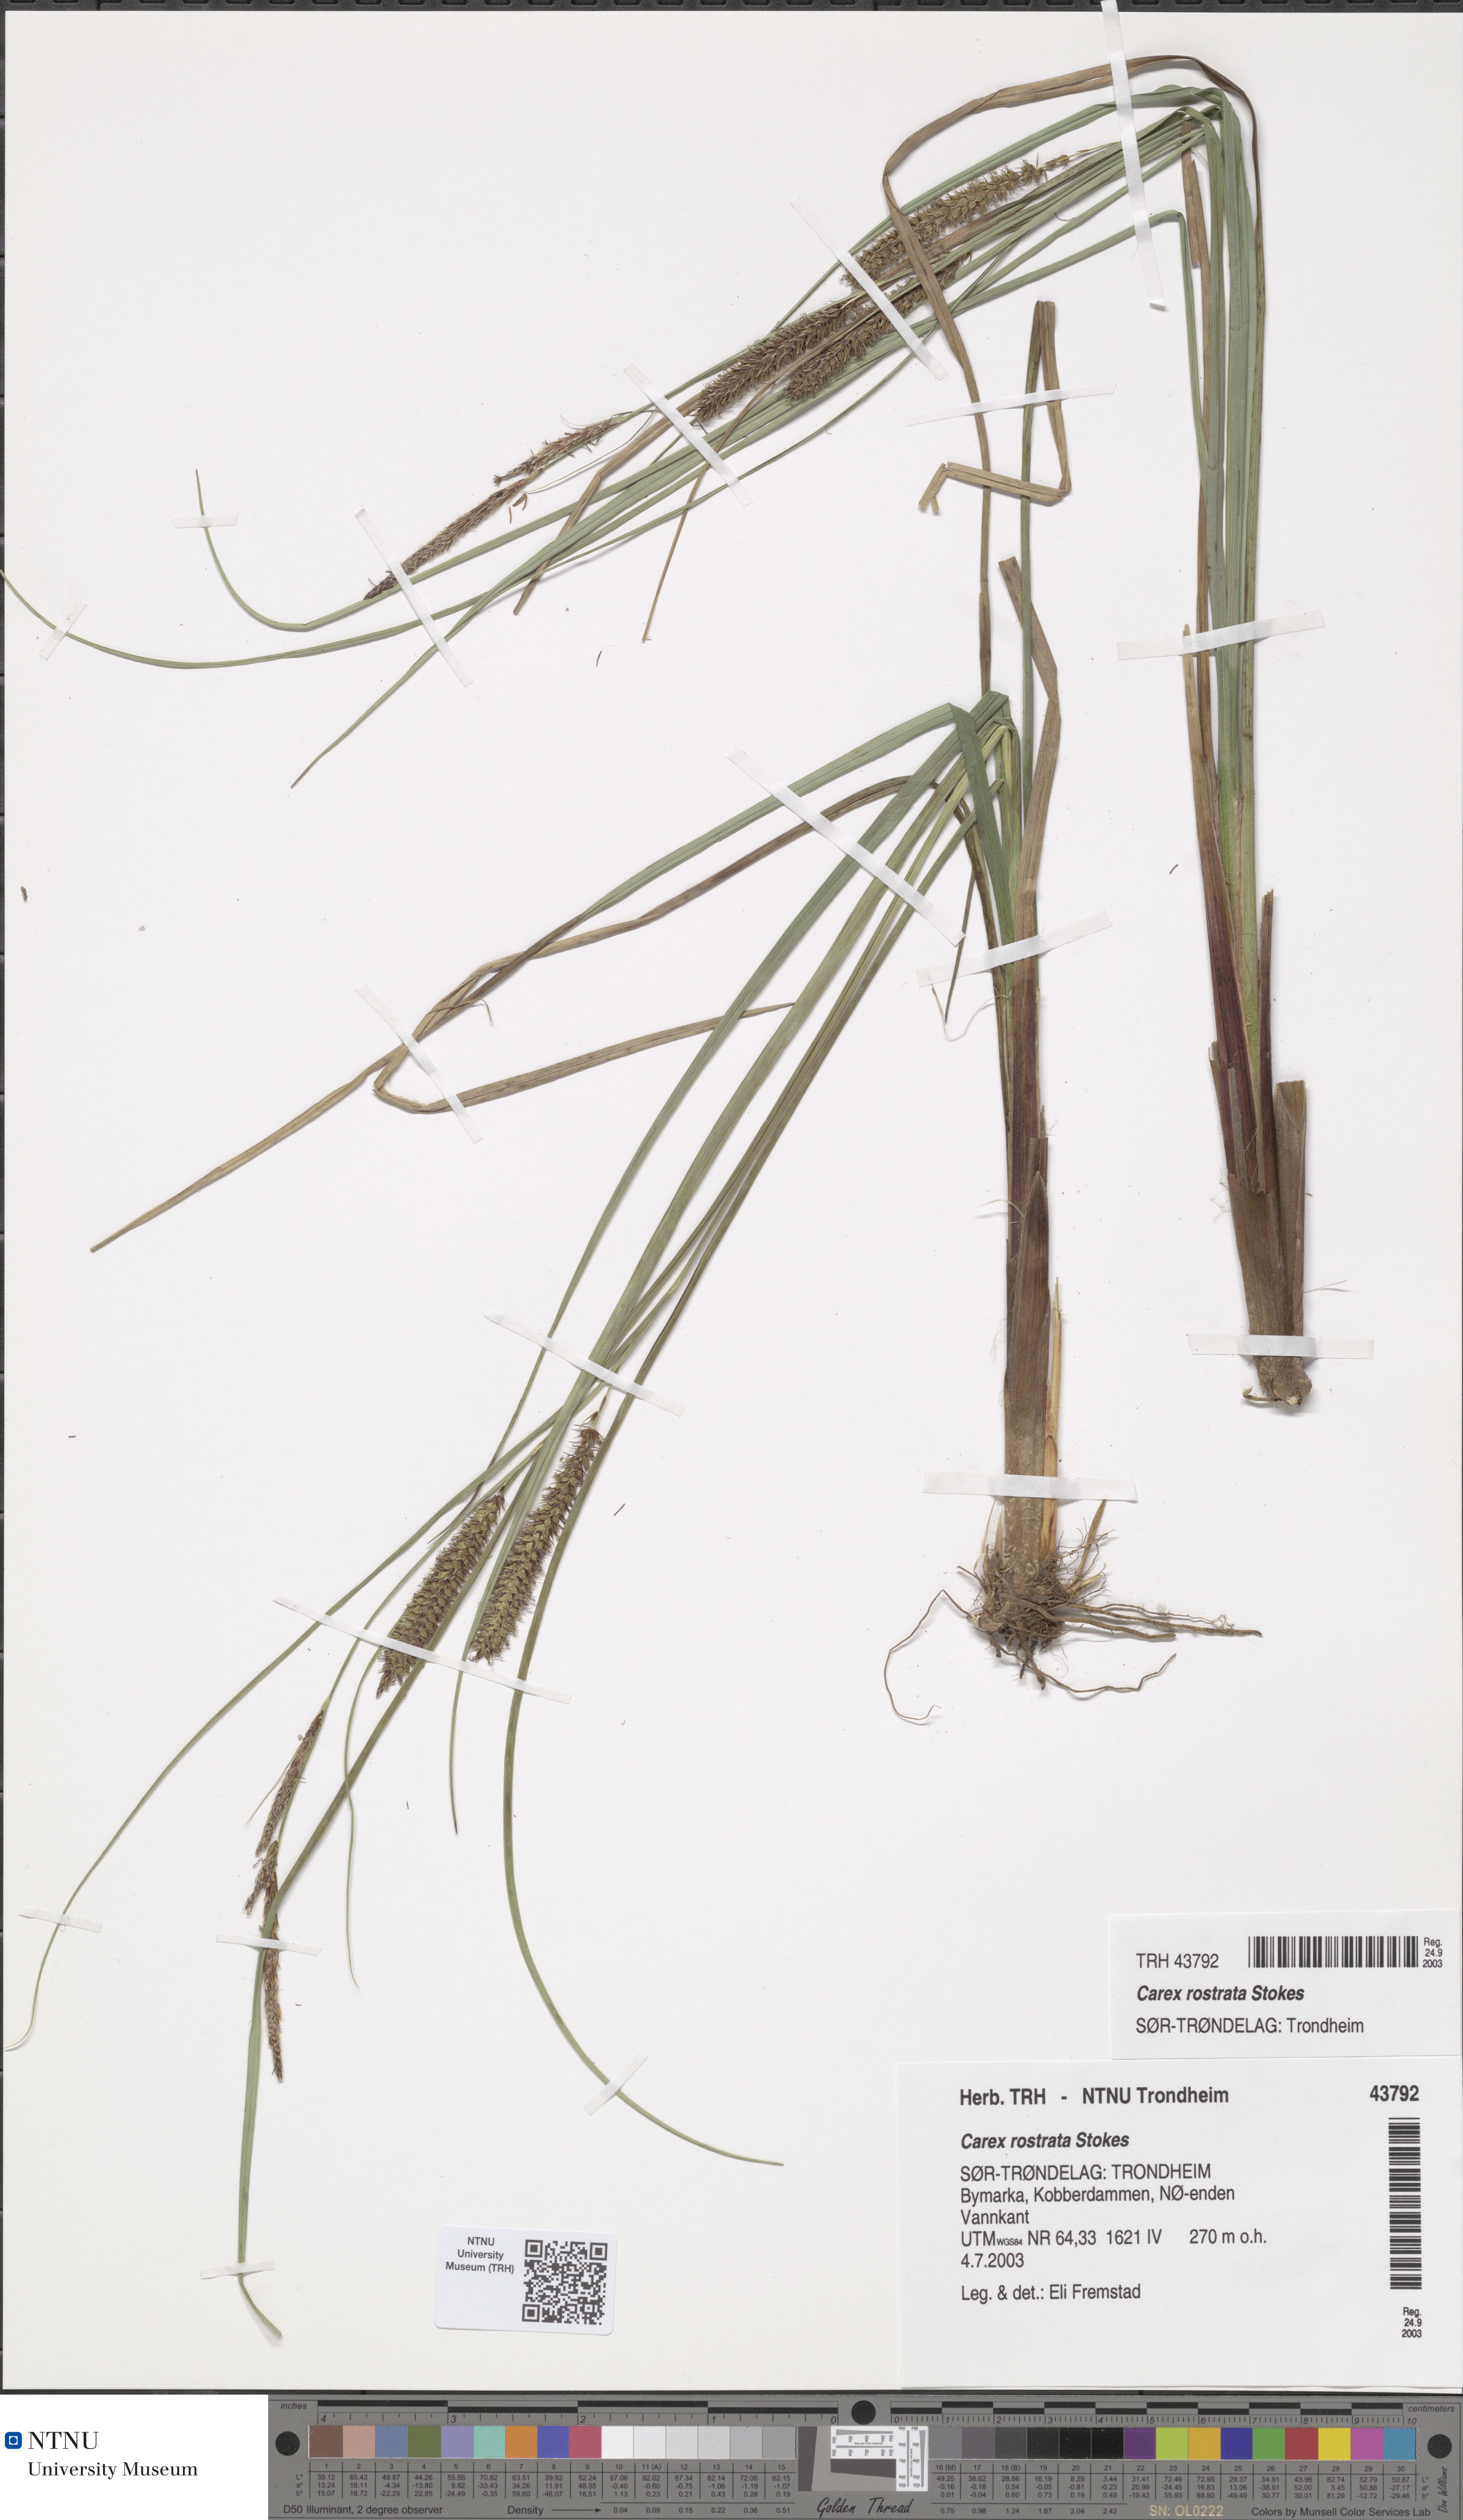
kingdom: Plantae
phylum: Tracheophyta
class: Liliopsida
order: Poales
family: Cyperaceae
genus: Carex
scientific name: Carex rostrata
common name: Bottle sedge
